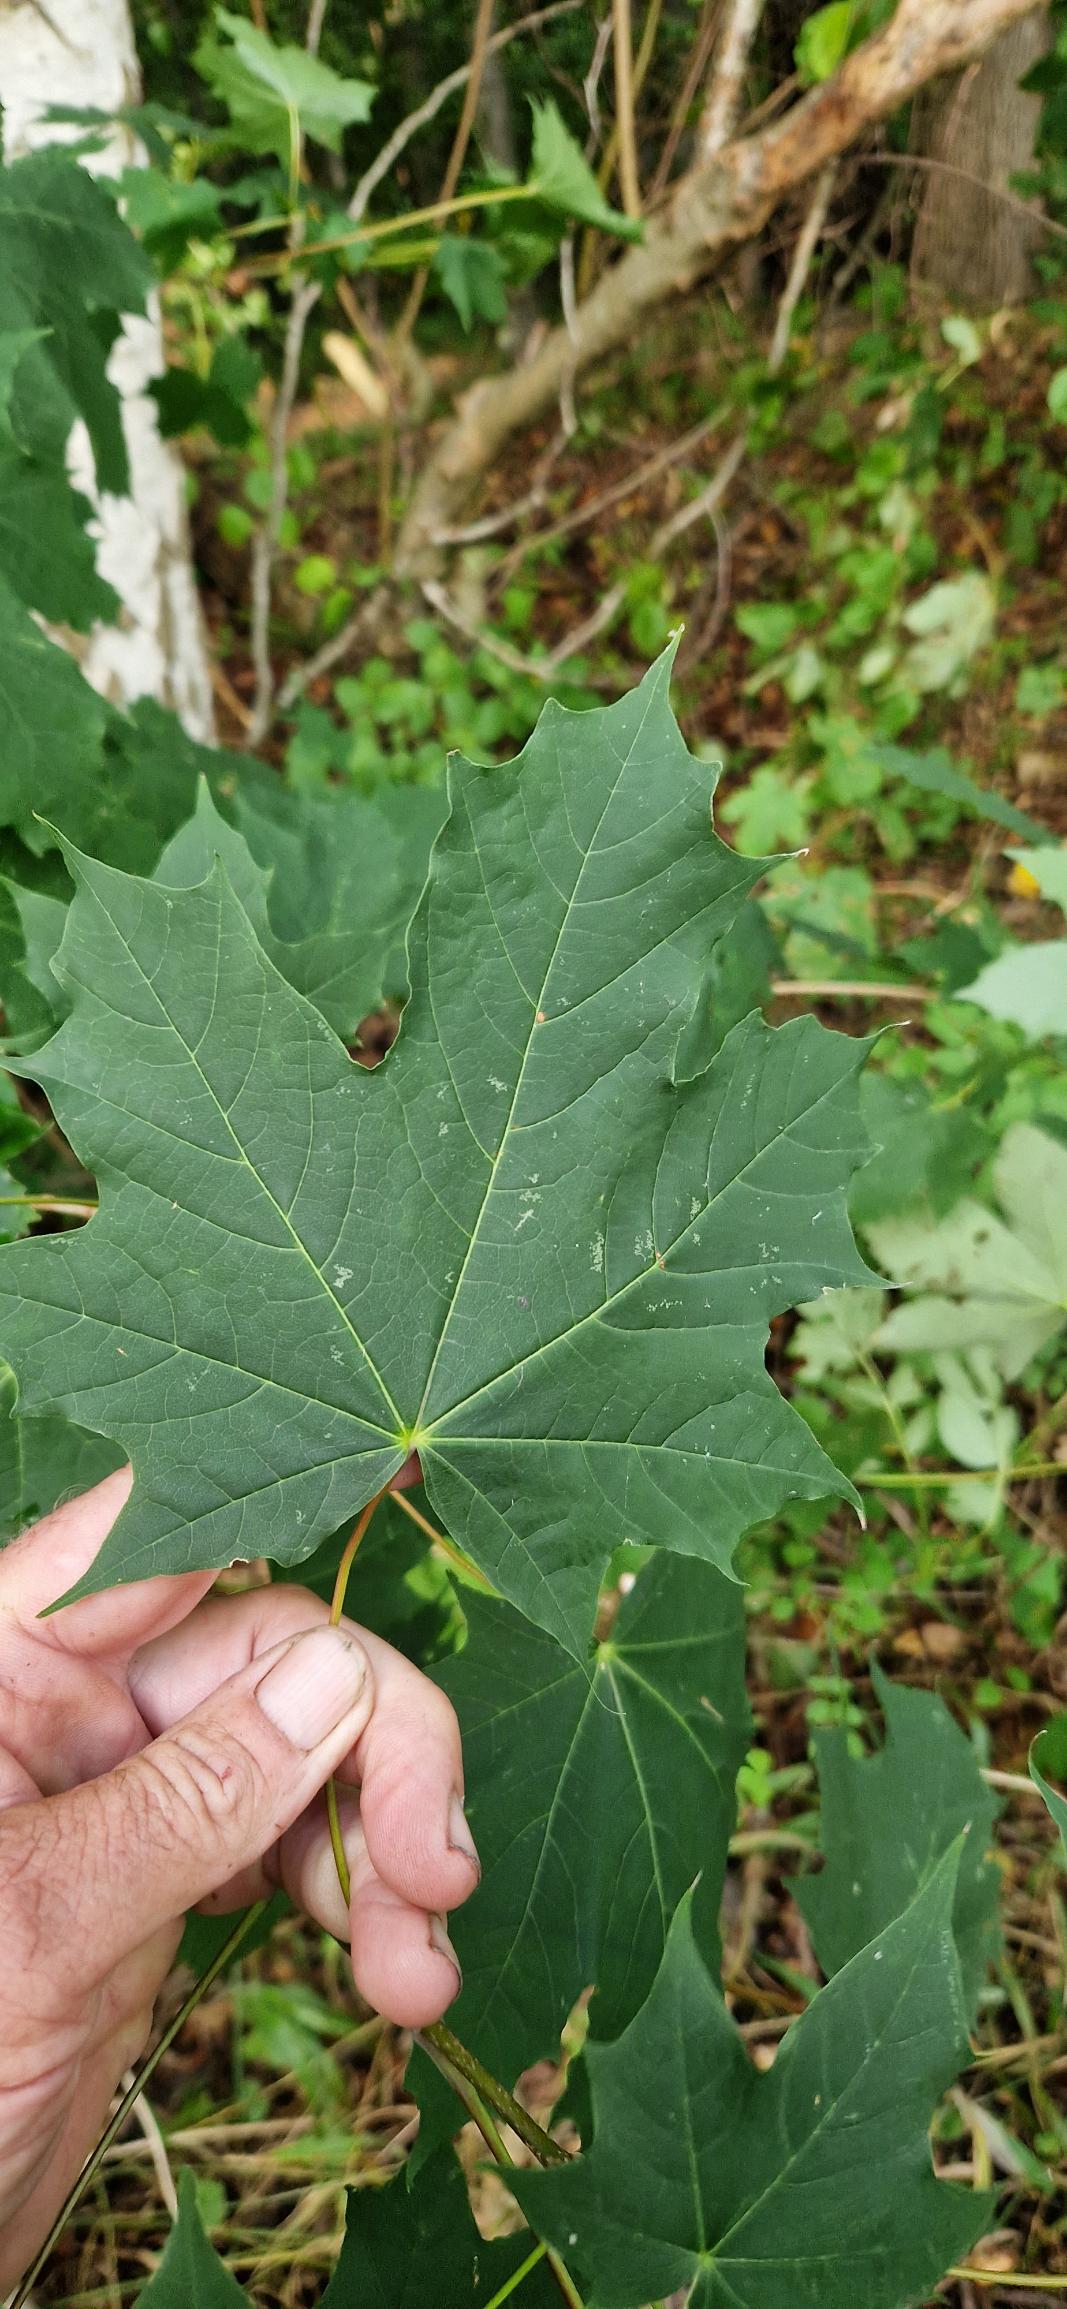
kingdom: Plantae
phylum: Tracheophyta
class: Magnoliopsida
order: Sapindales
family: Sapindaceae
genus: Acer
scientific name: Acer platanoides
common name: Spids-løn
